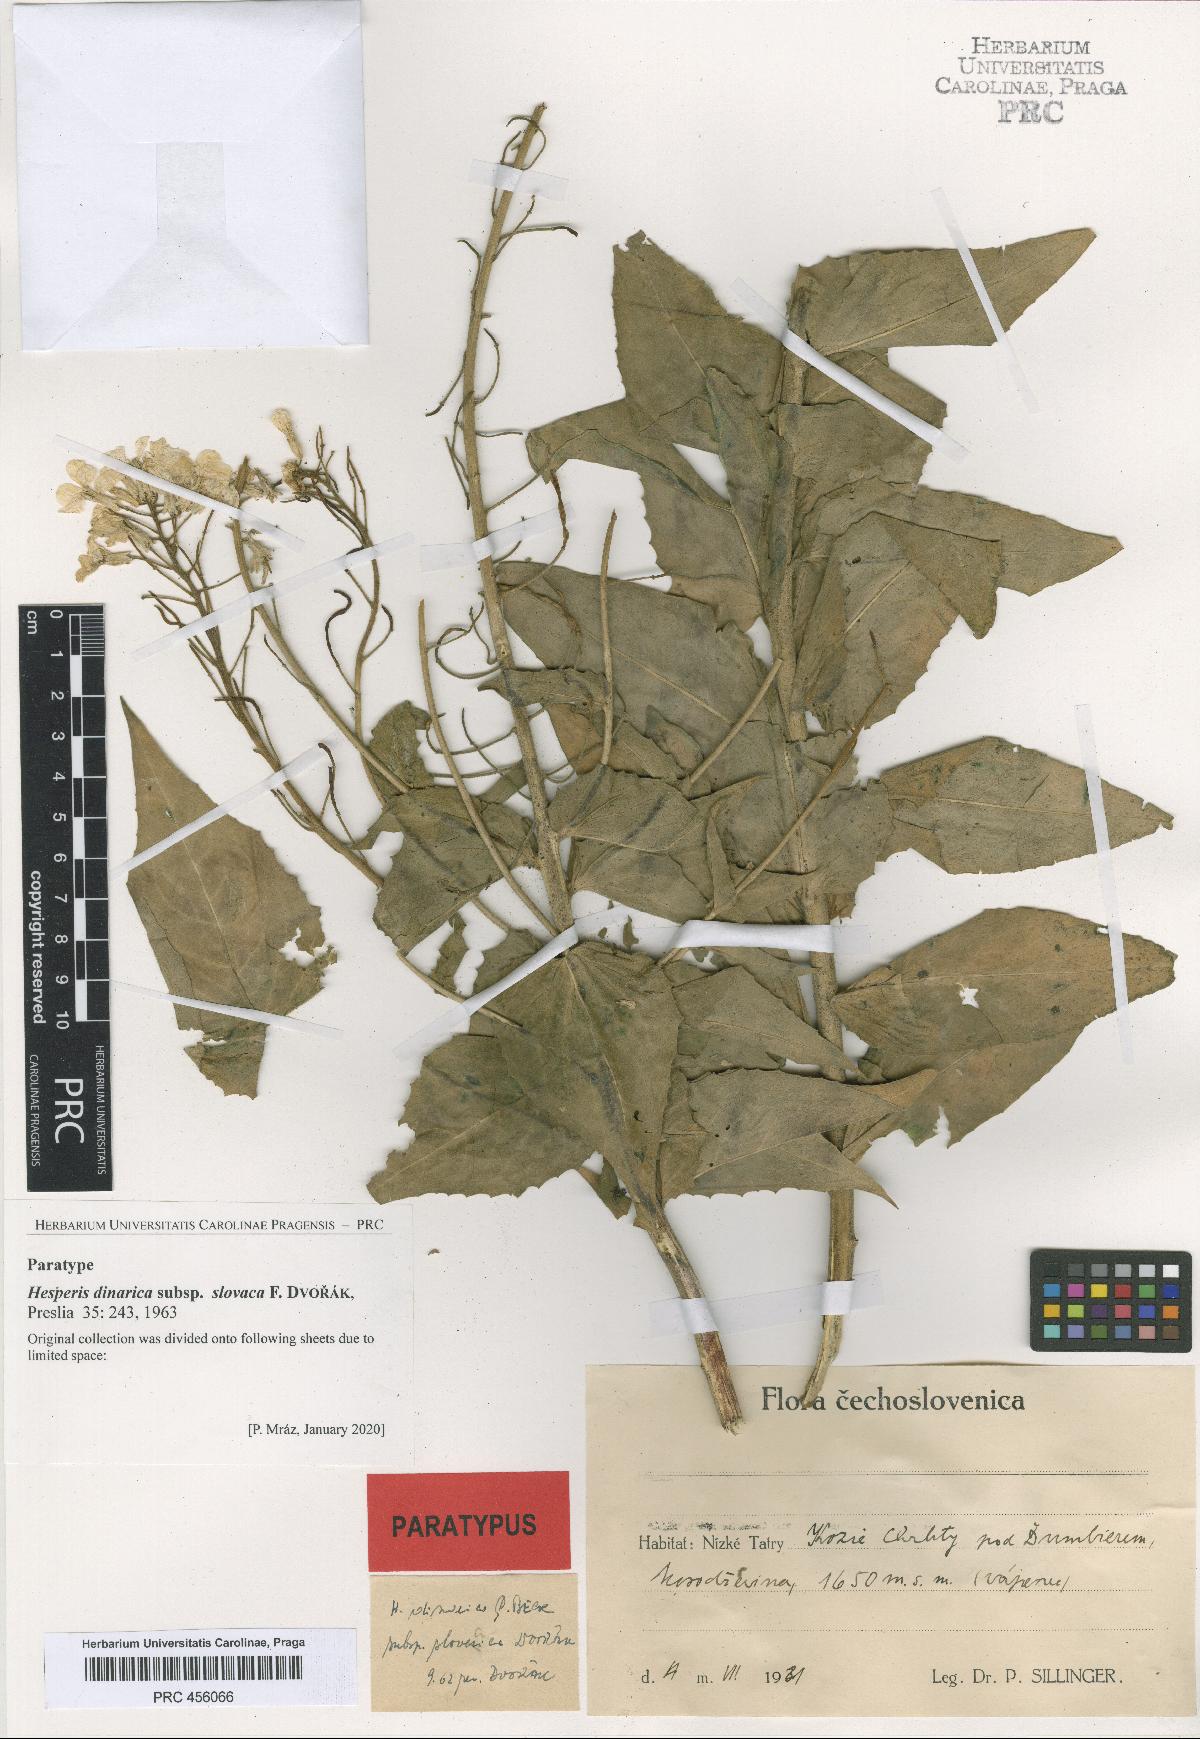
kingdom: Plantae
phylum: Tracheophyta
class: Magnoliopsida
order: Brassicales
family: Brassicaceae
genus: Hesperis
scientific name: Hesperis dinarica
